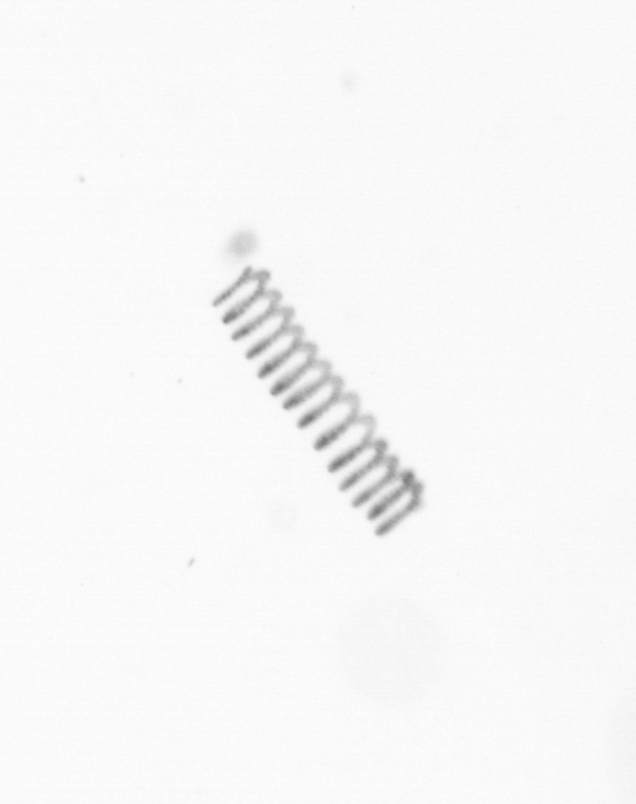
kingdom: Chromista
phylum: Ochrophyta
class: Bacillariophyceae
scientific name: Bacillariophyceae
